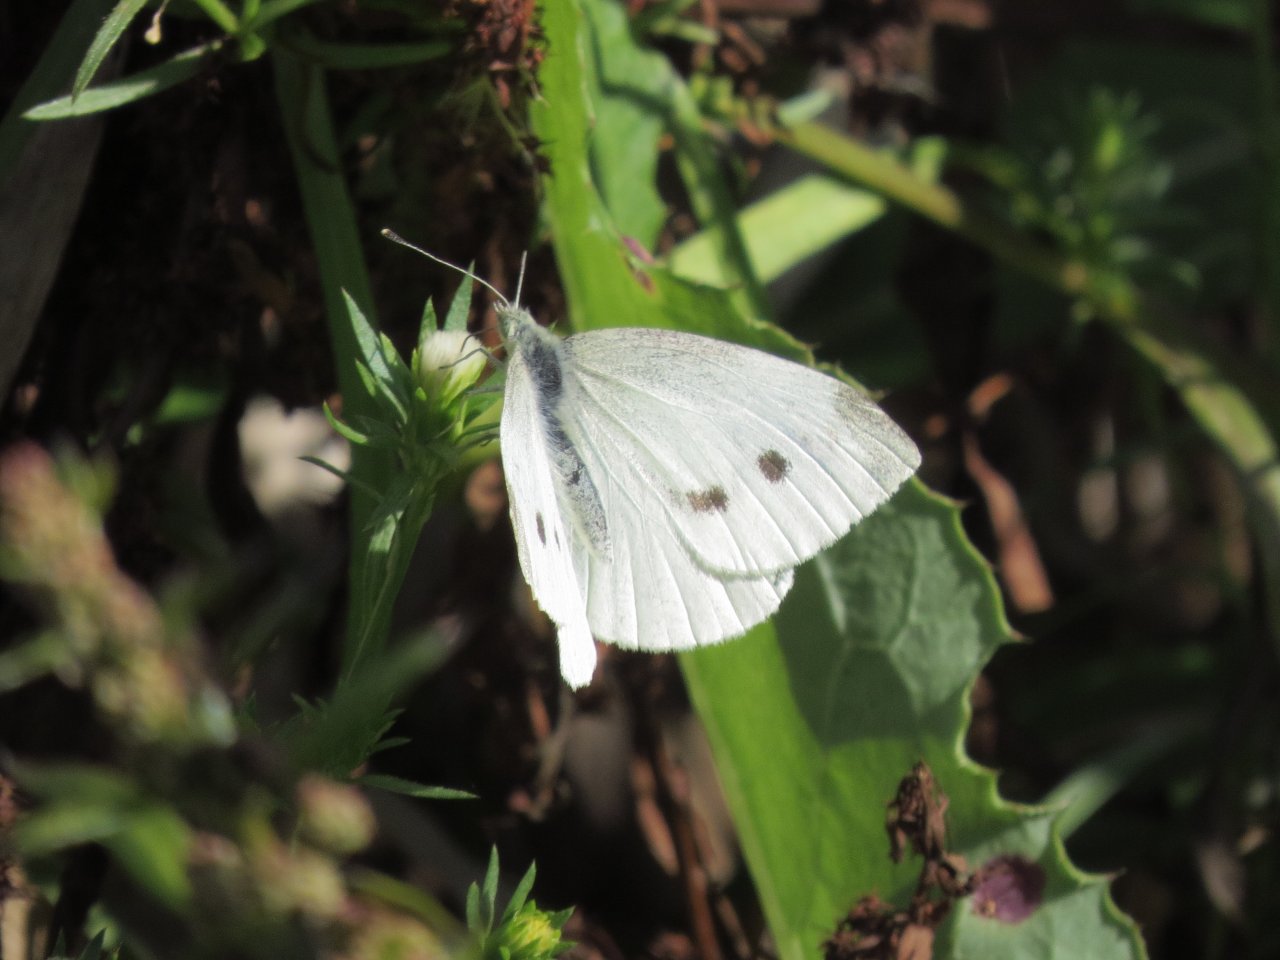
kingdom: Animalia
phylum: Arthropoda
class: Insecta
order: Lepidoptera
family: Pieridae
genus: Pieris
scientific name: Pieris rapae
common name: Cabbage White
